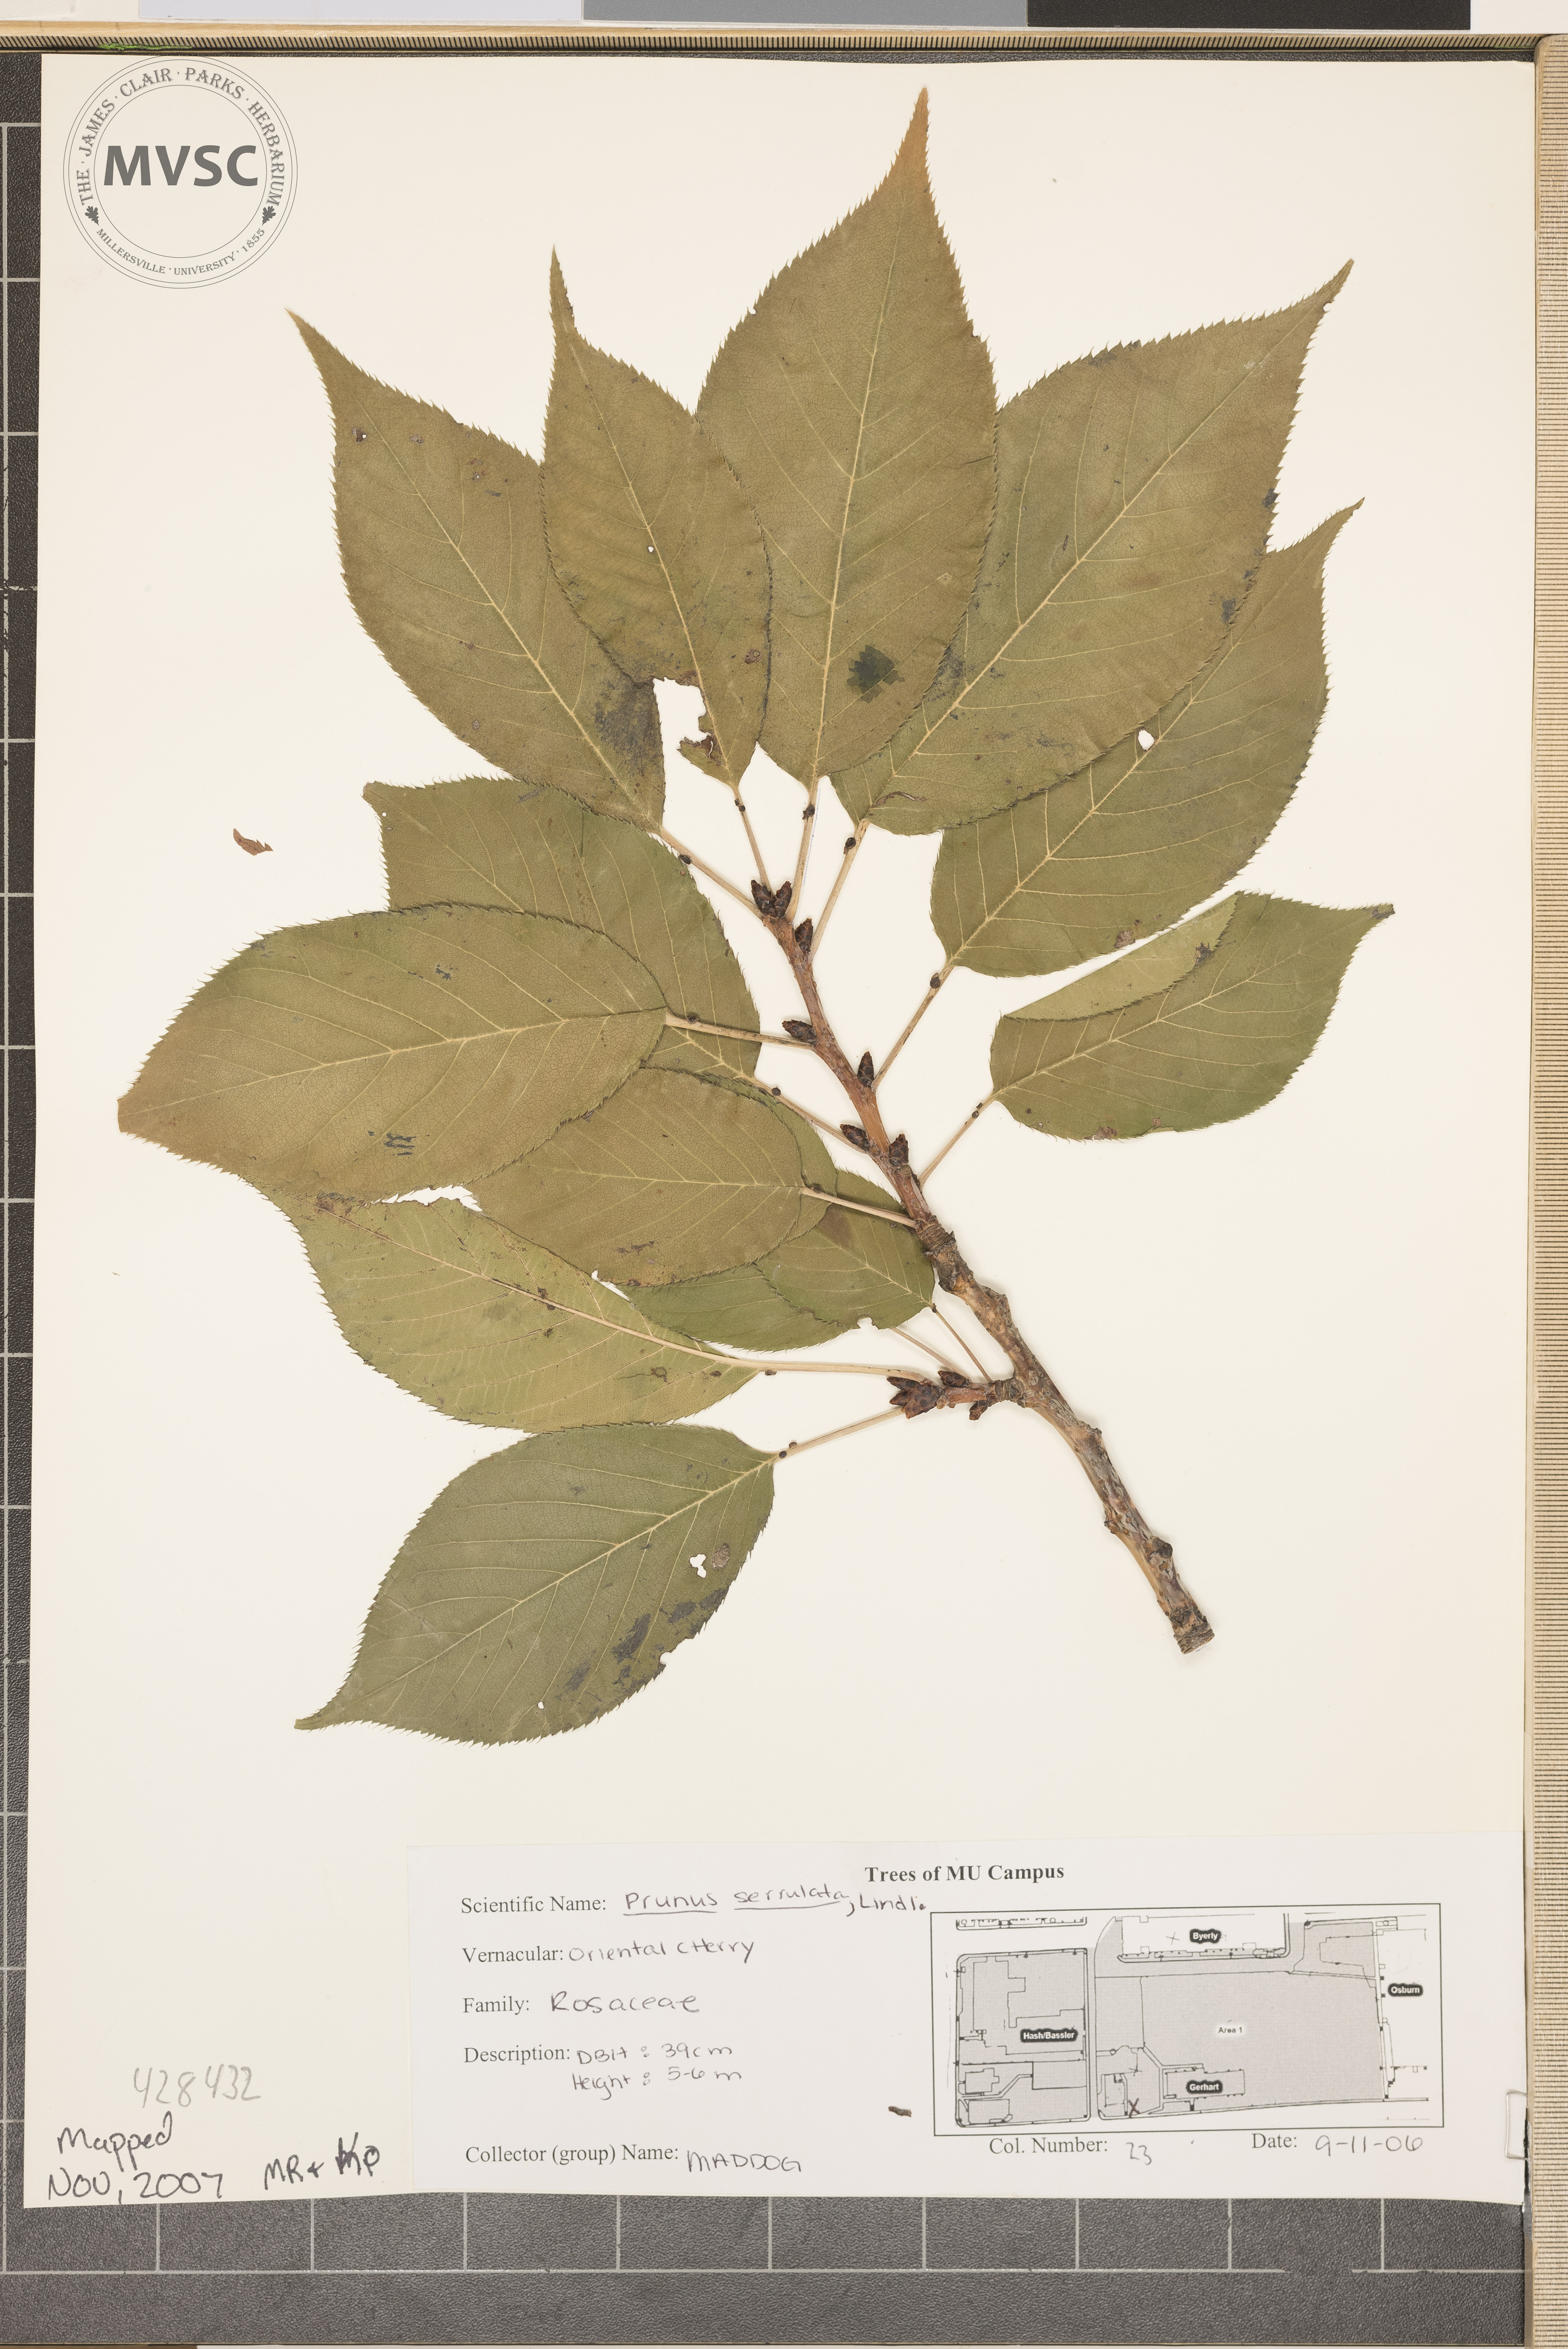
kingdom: Plantae
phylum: Tracheophyta
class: Magnoliopsida
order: Rosales
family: Rosaceae
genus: Prunus
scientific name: Prunus serrulata
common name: Oriental cherry
